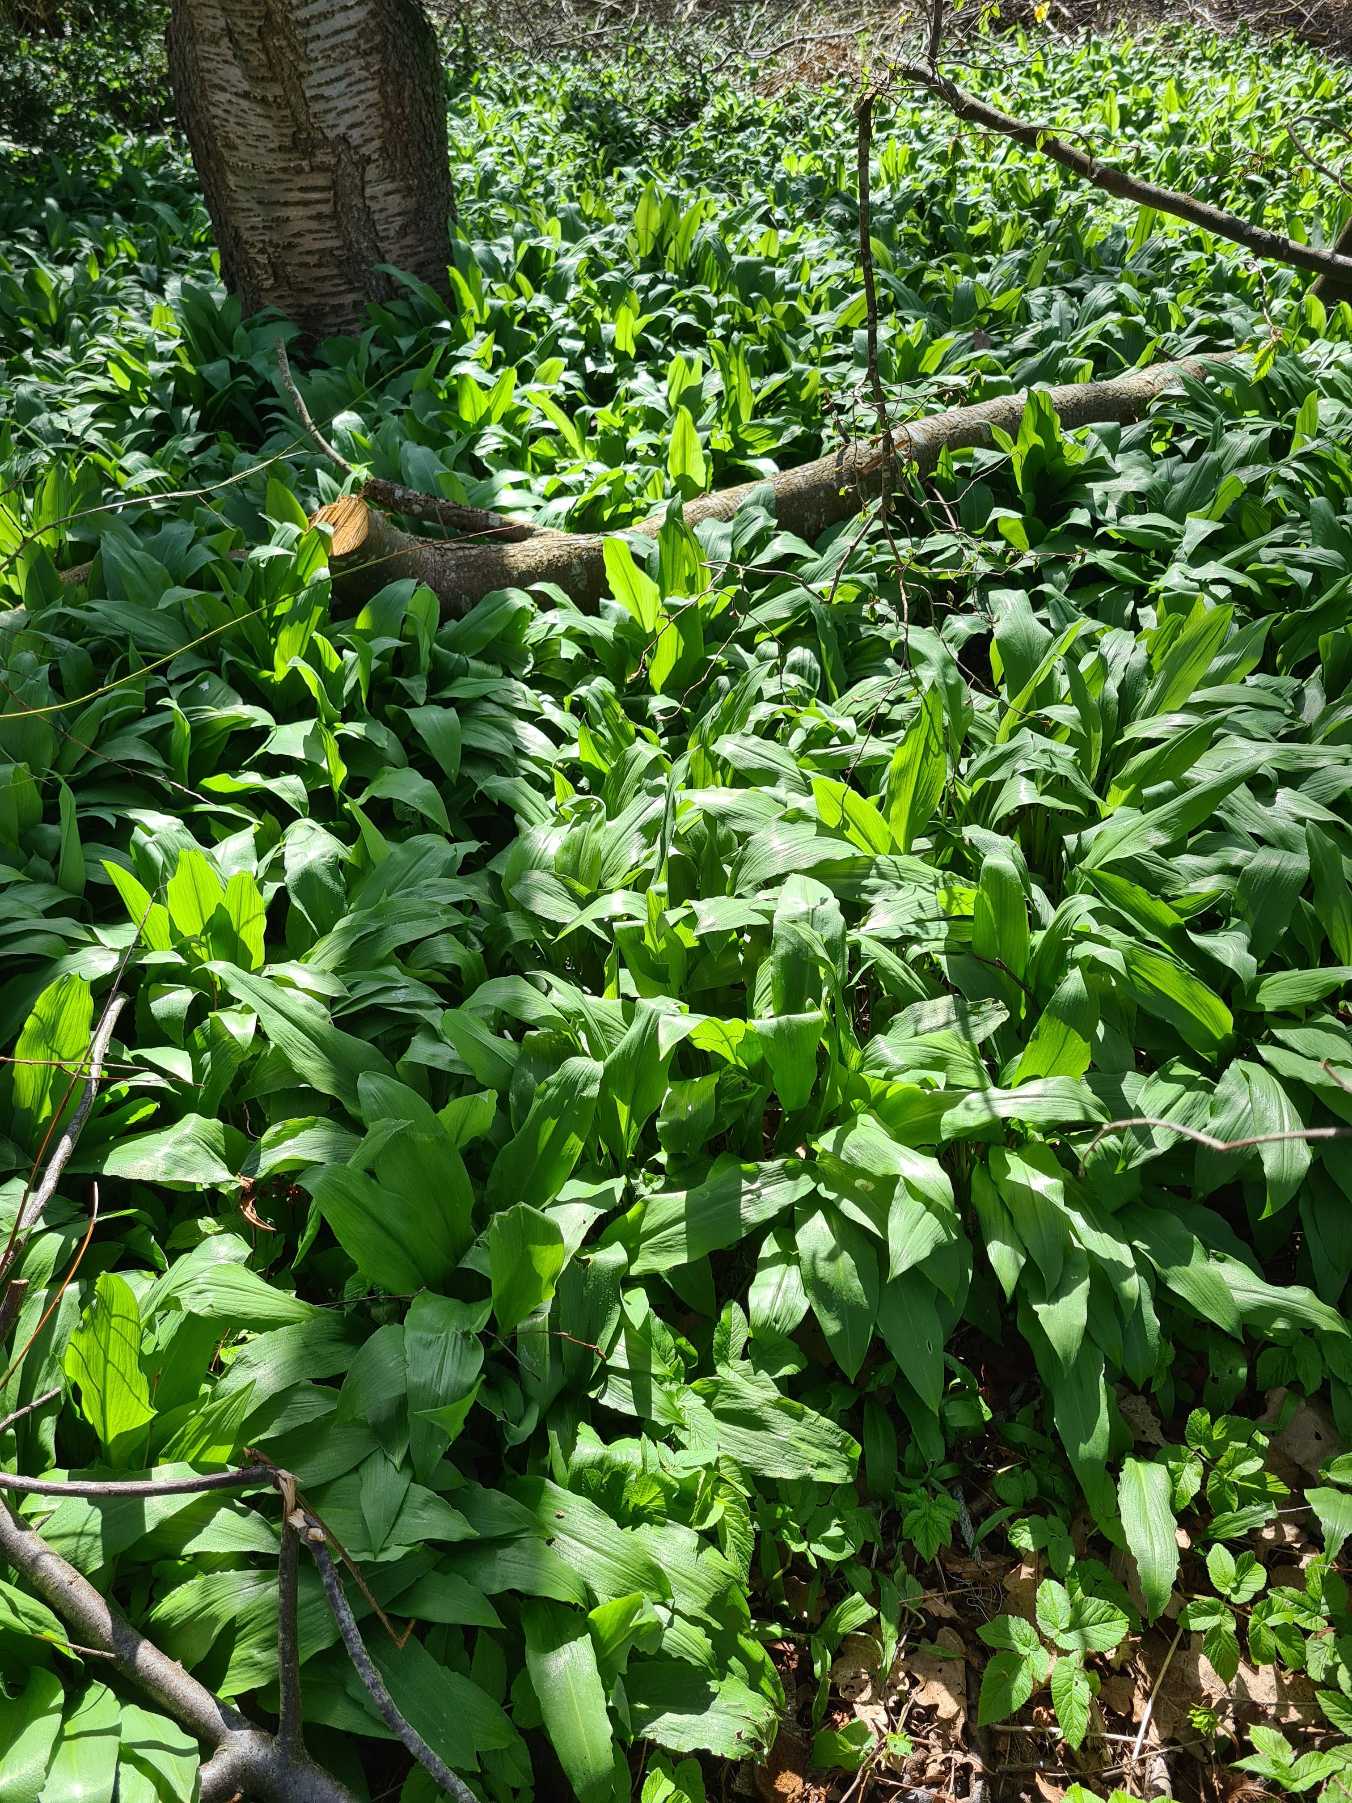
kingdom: Plantae
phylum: Tracheophyta
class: Liliopsida
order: Asparagales
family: Amaryllidaceae
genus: Allium
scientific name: Allium ursinum
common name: Rams-løg
